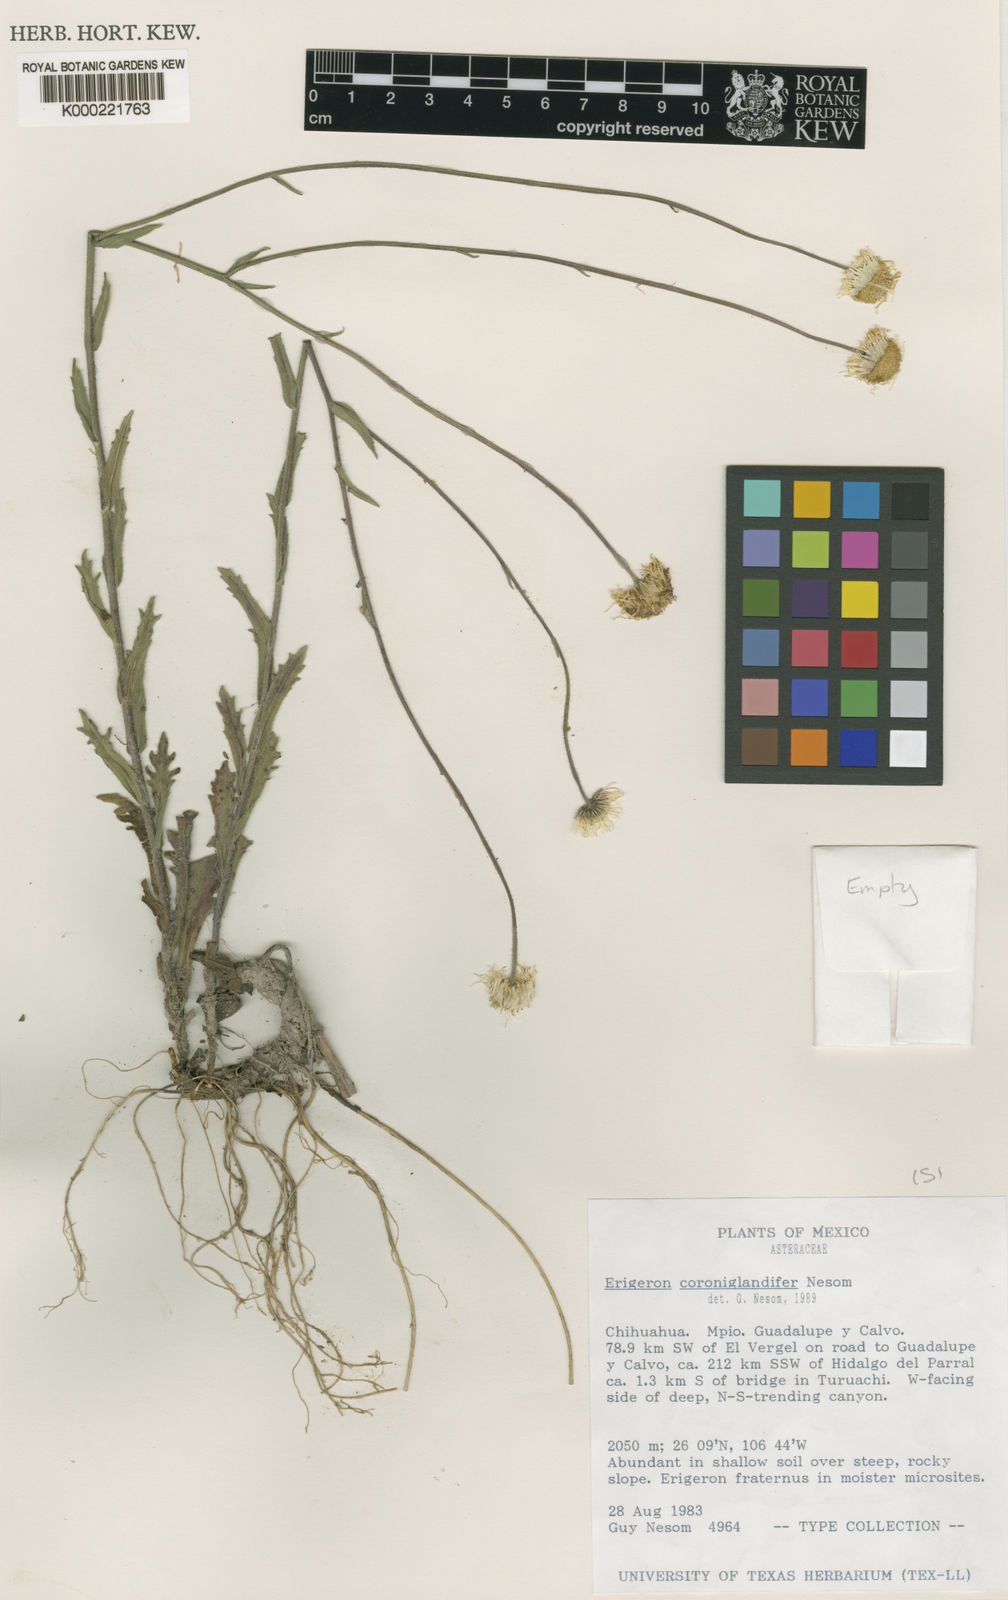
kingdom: Plantae
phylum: Tracheophyta
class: Magnoliopsida
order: Asterales
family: Asteraceae
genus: Erigeron
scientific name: Erigeron coroniglandifer
